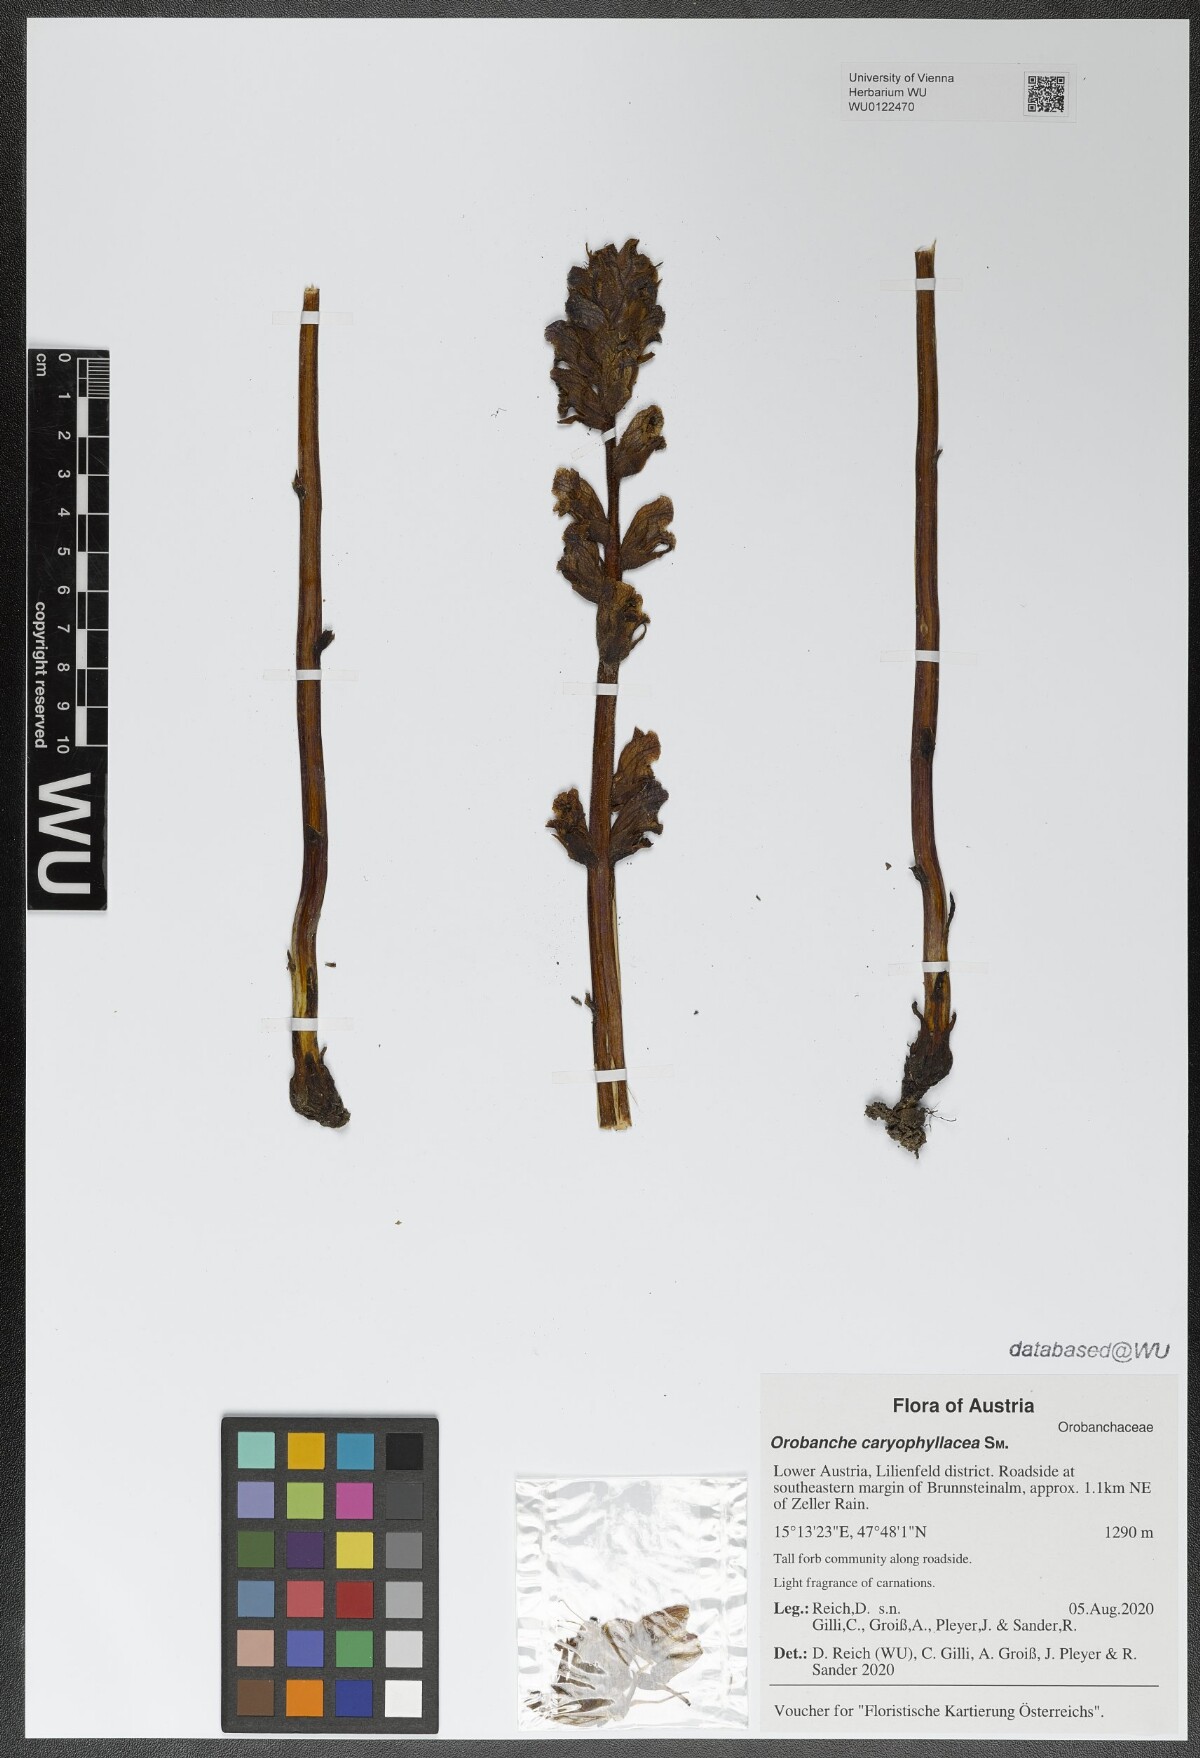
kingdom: Plantae
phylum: Tracheophyta
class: Magnoliopsida
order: Lamiales
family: Orobanchaceae
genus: Orobanche
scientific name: Orobanche caryophyllacea
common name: Bedstraw broomrape
